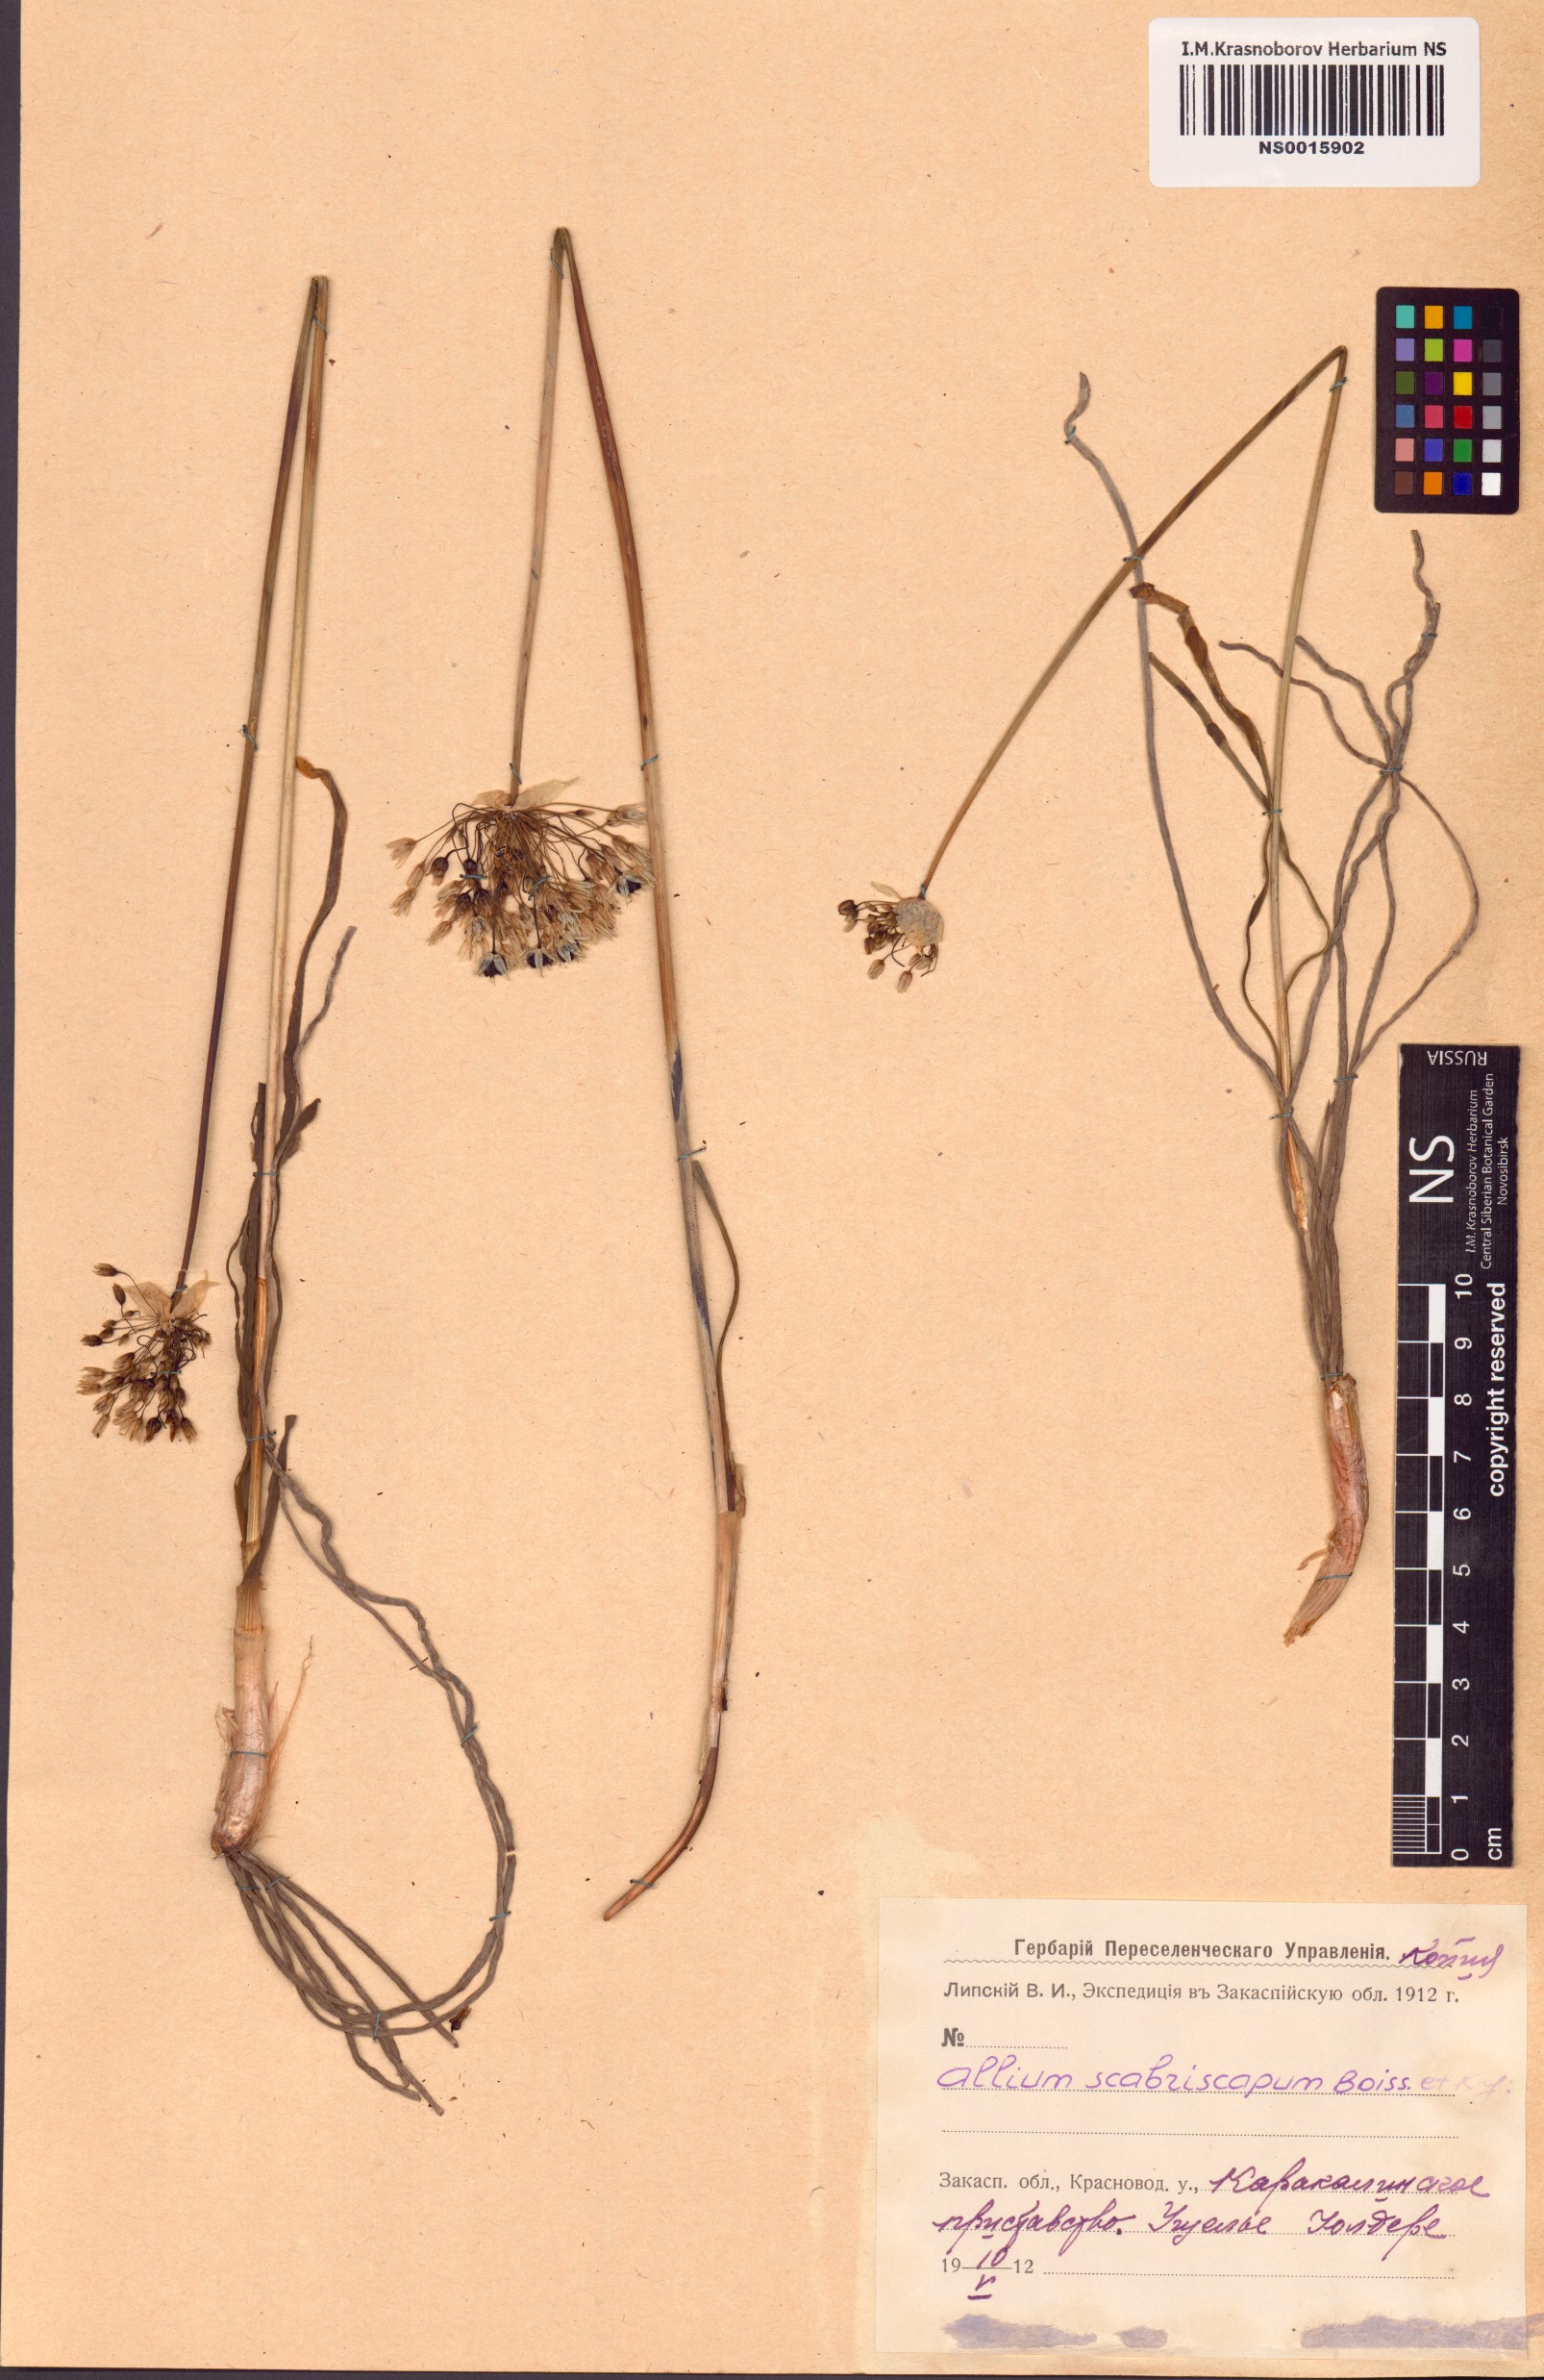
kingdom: Plantae
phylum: Tracheophyta
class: Liliopsida
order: Asparagales
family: Amaryllidaceae
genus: Allium
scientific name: Allium scabriscapum
